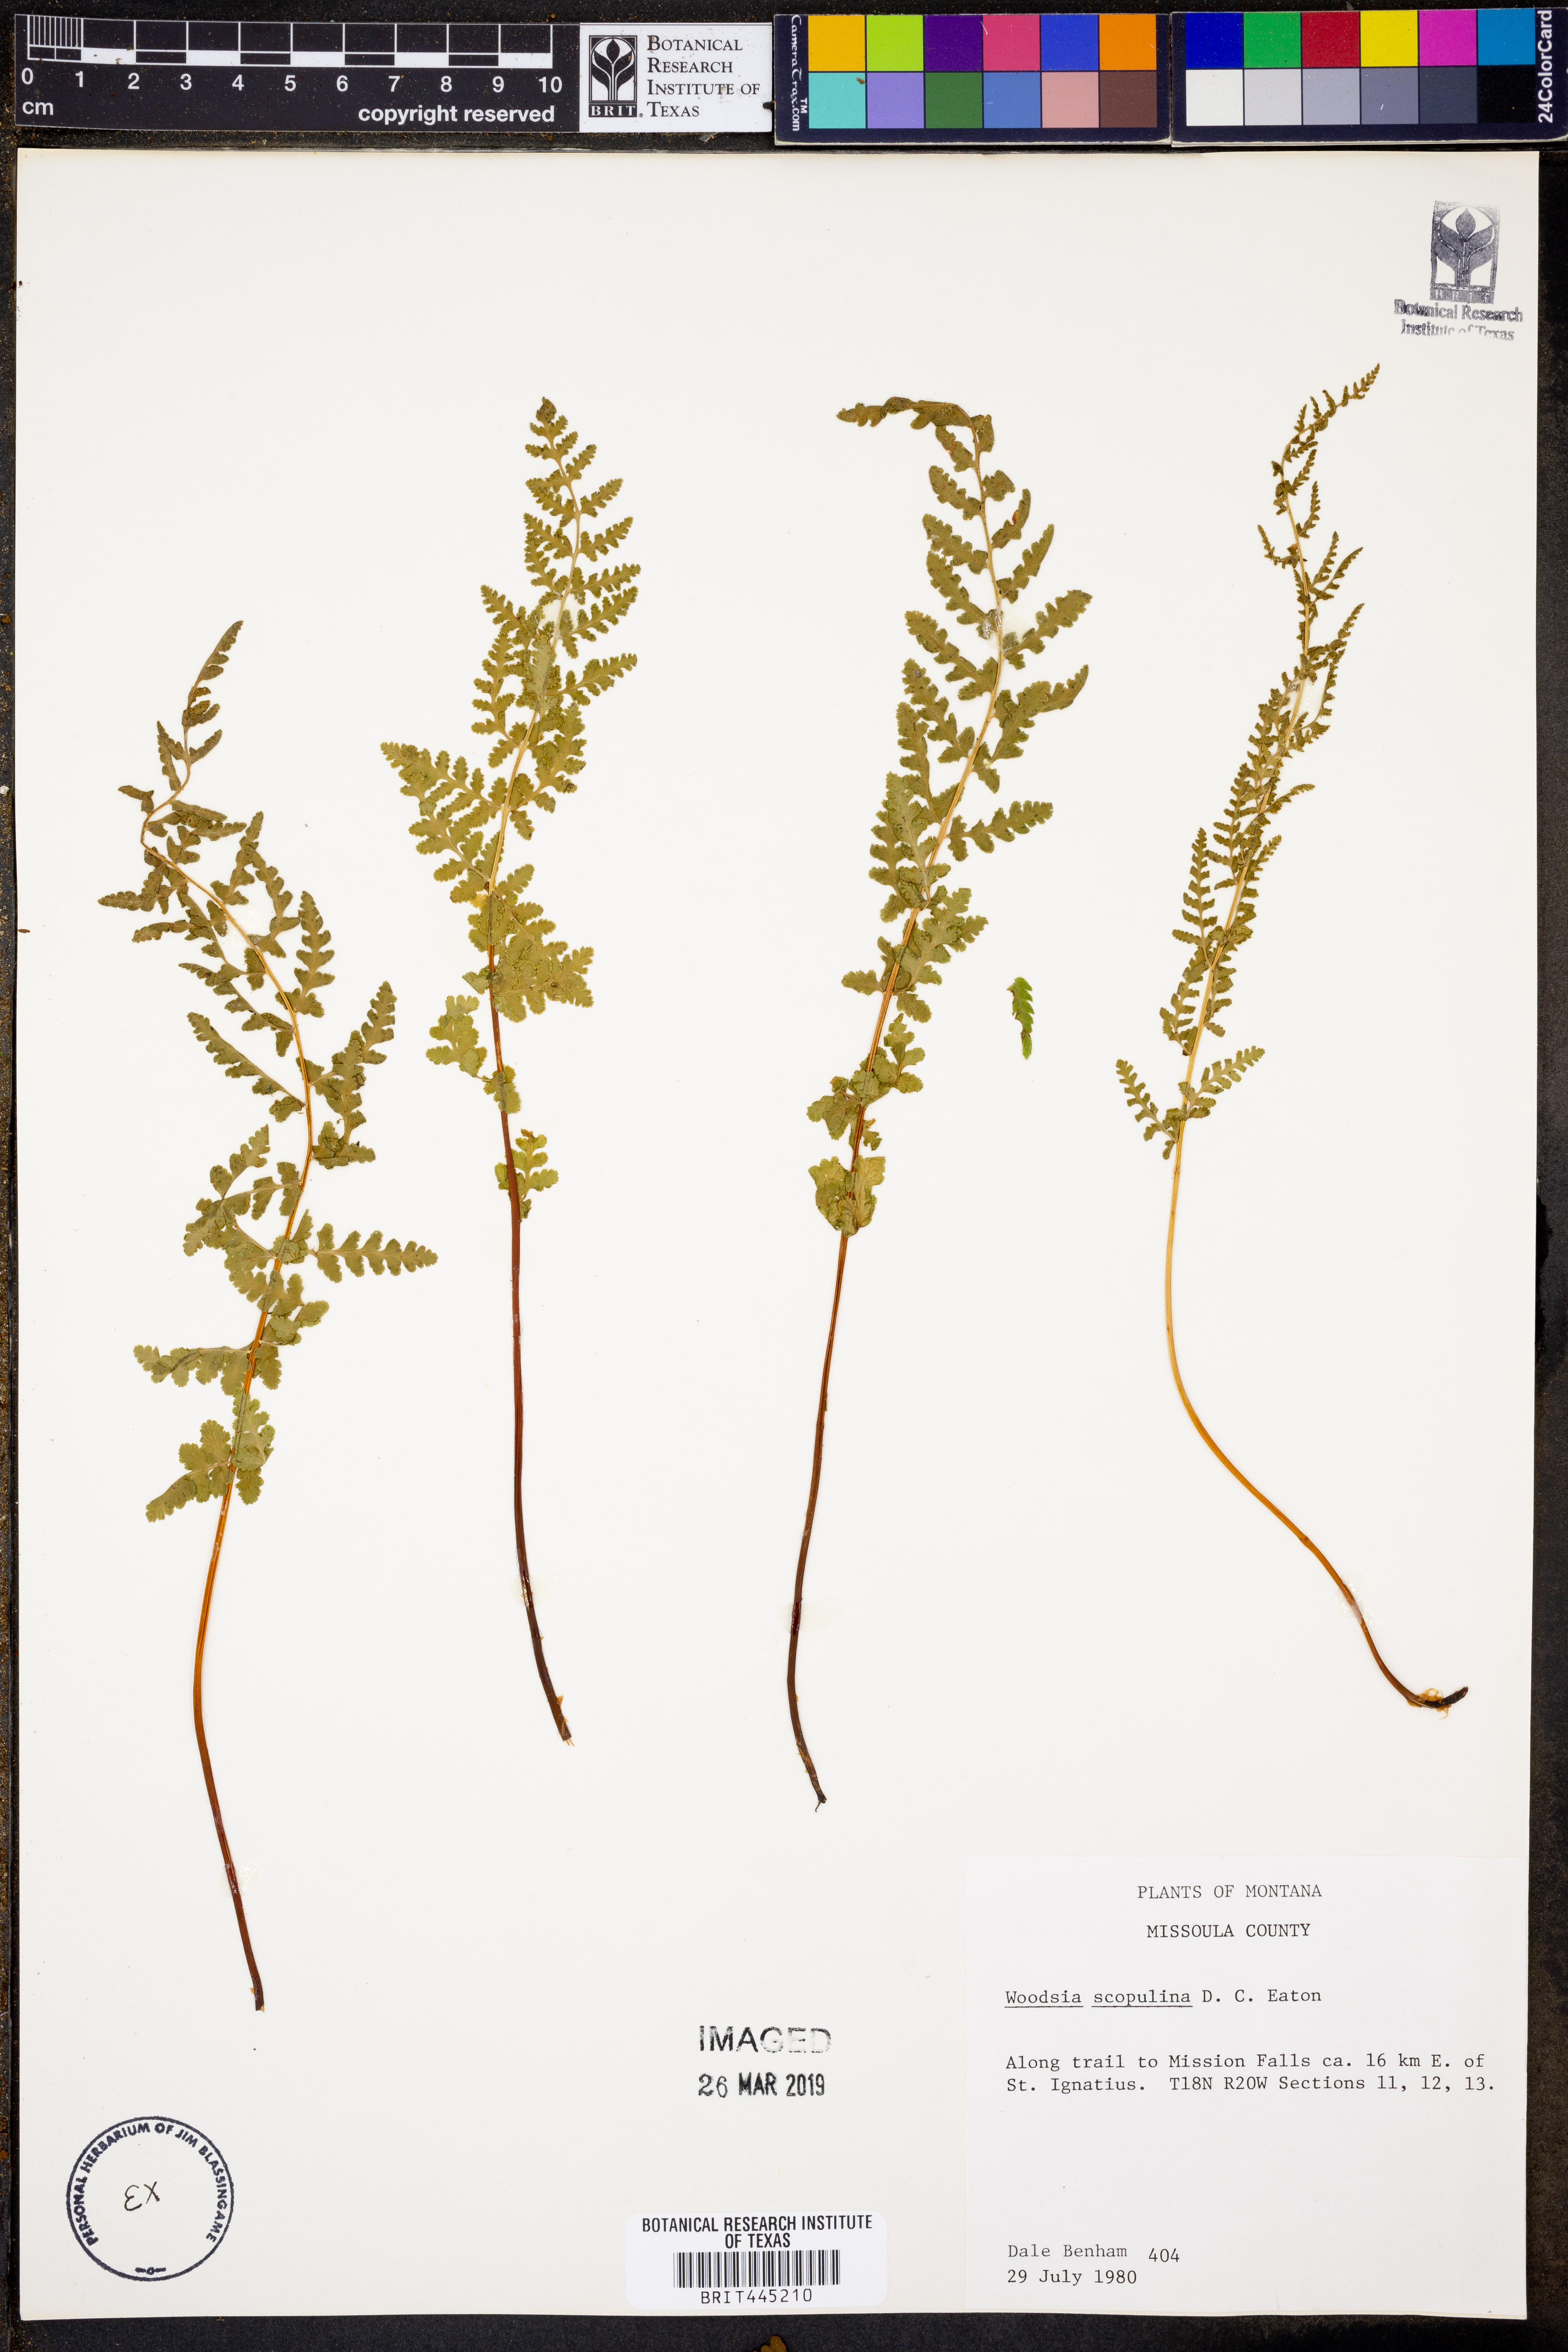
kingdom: Plantae
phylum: Tracheophyta
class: Polypodiopsida
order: Polypodiales
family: Woodsiaceae
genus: Physematium
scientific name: Physematium scopulinum
